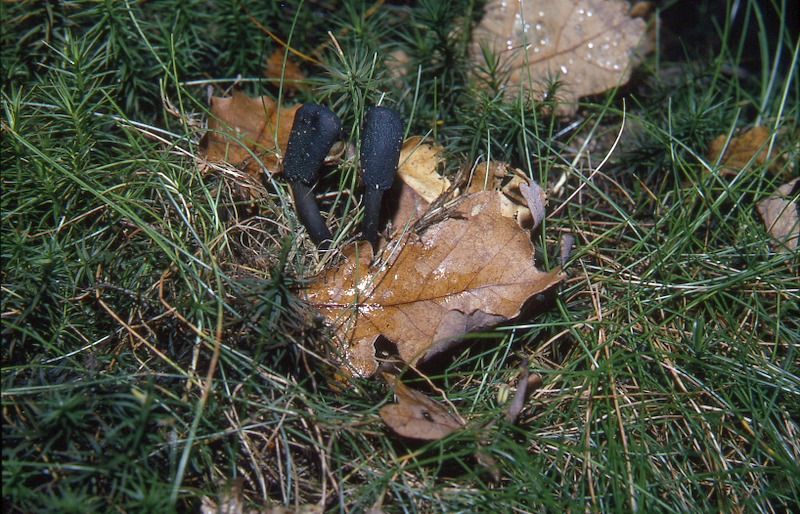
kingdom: Fungi
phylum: Ascomycota
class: Sordariomycetes
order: Hypocreales
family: Ophiocordycipitaceae
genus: Tolypocladium
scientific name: Tolypocladium ophioglossoides
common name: Snaketongue truffleclub
